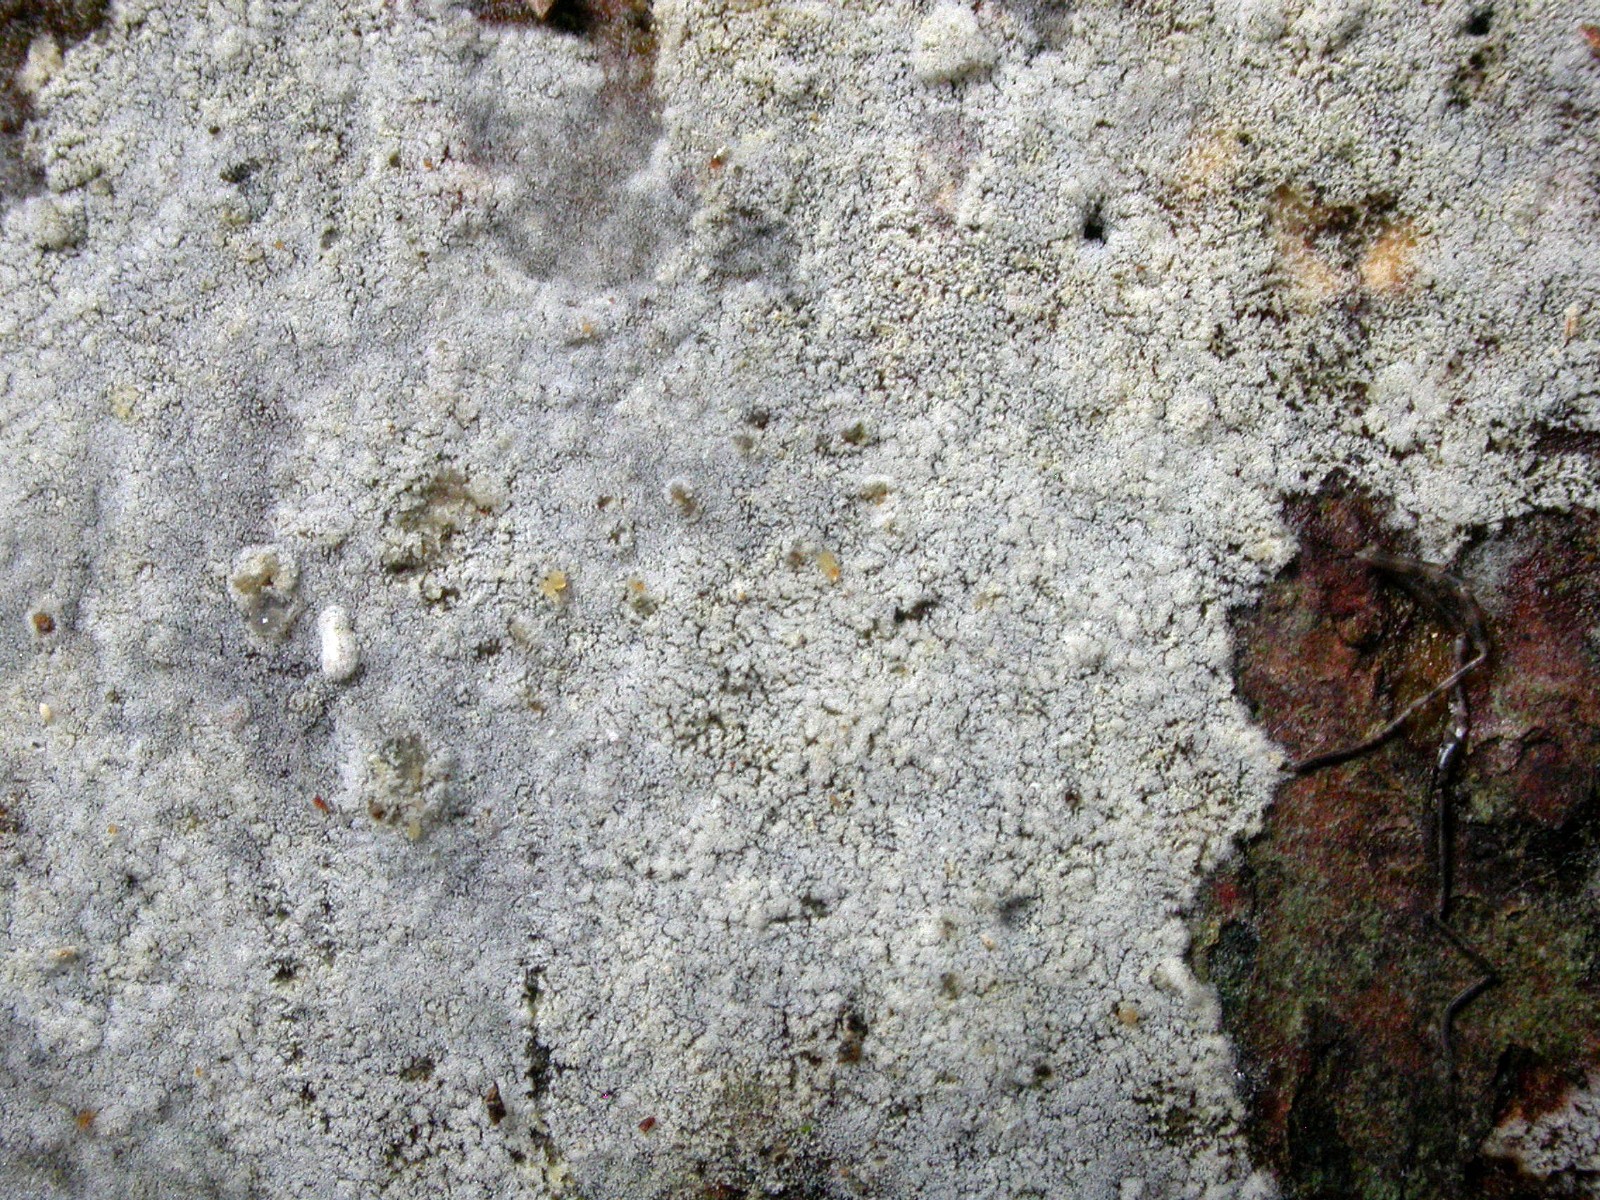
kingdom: Fungi
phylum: Basidiomycota
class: Agaricomycetes
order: Cantharellales
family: Botryobasidiaceae
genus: Botryobasidium
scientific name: Botryobasidium laeve
